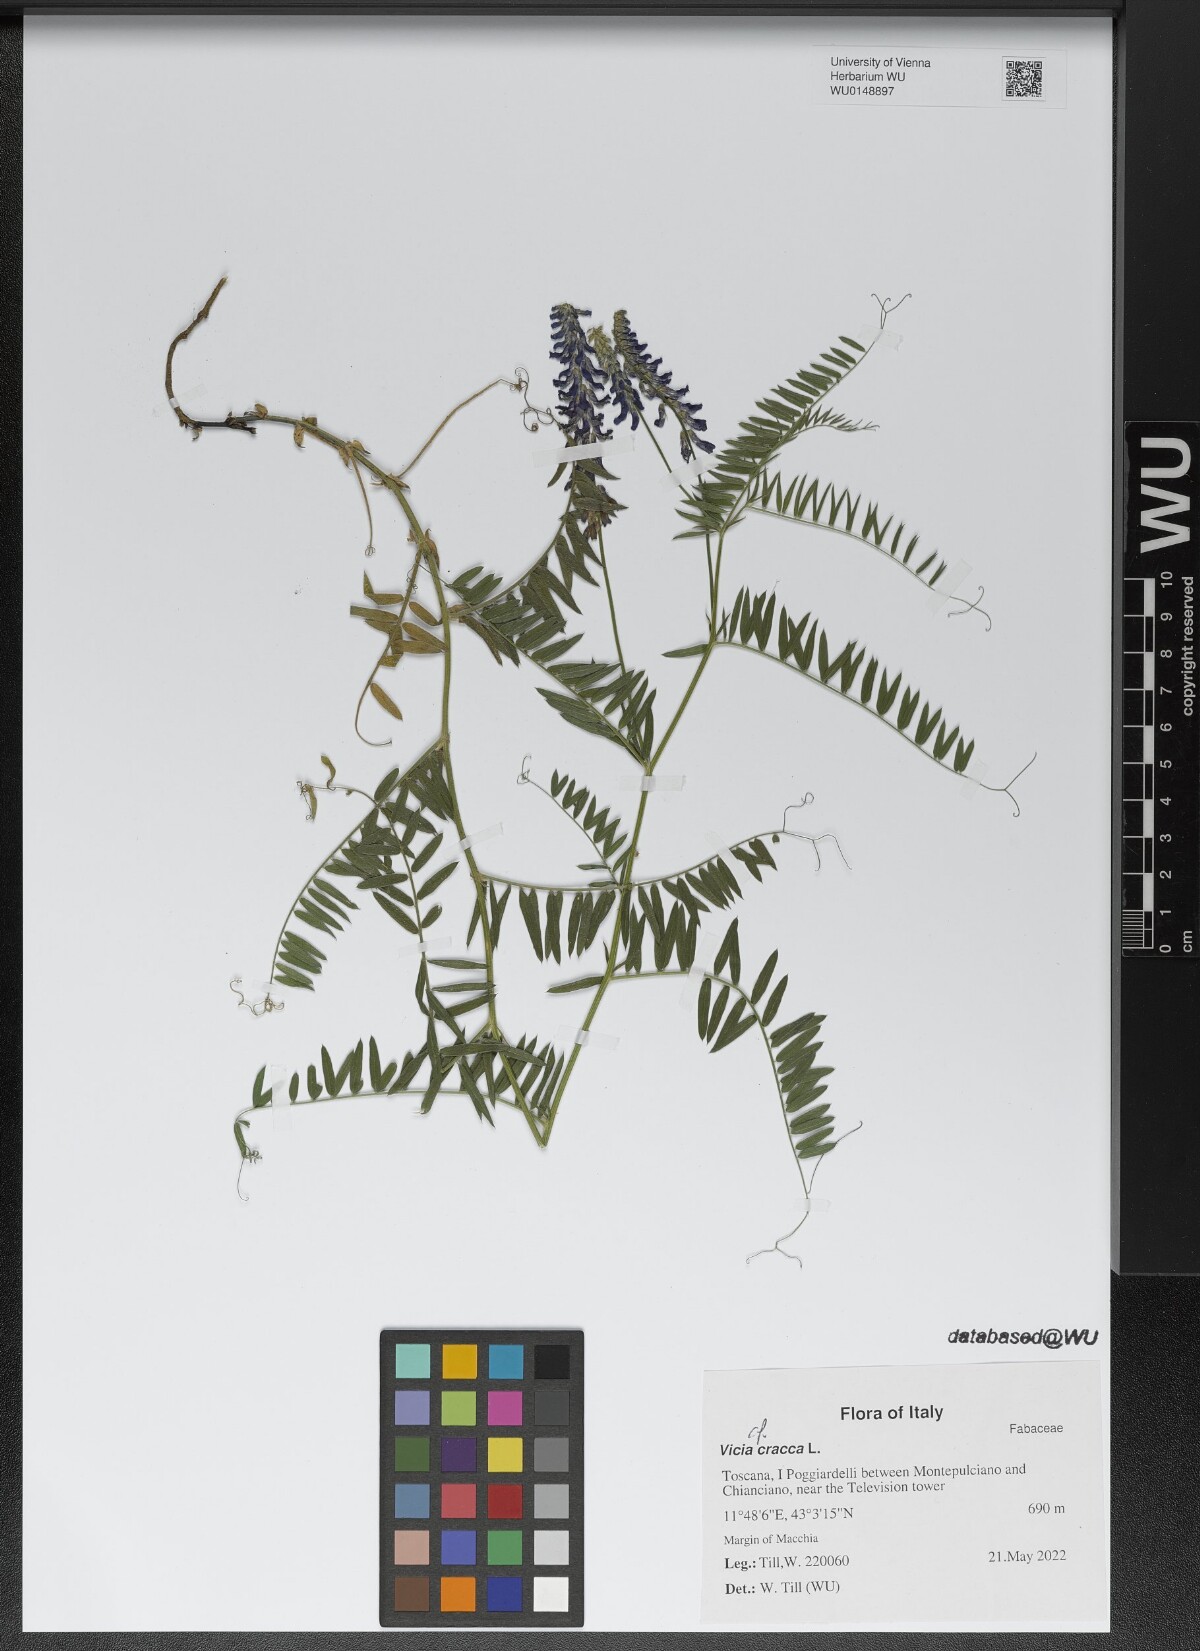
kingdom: Plantae
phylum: Tracheophyta
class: Magnoliopsida
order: Fabales
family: Fabaceae
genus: Vicia
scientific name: Vicia cracca
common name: Bird vetch
